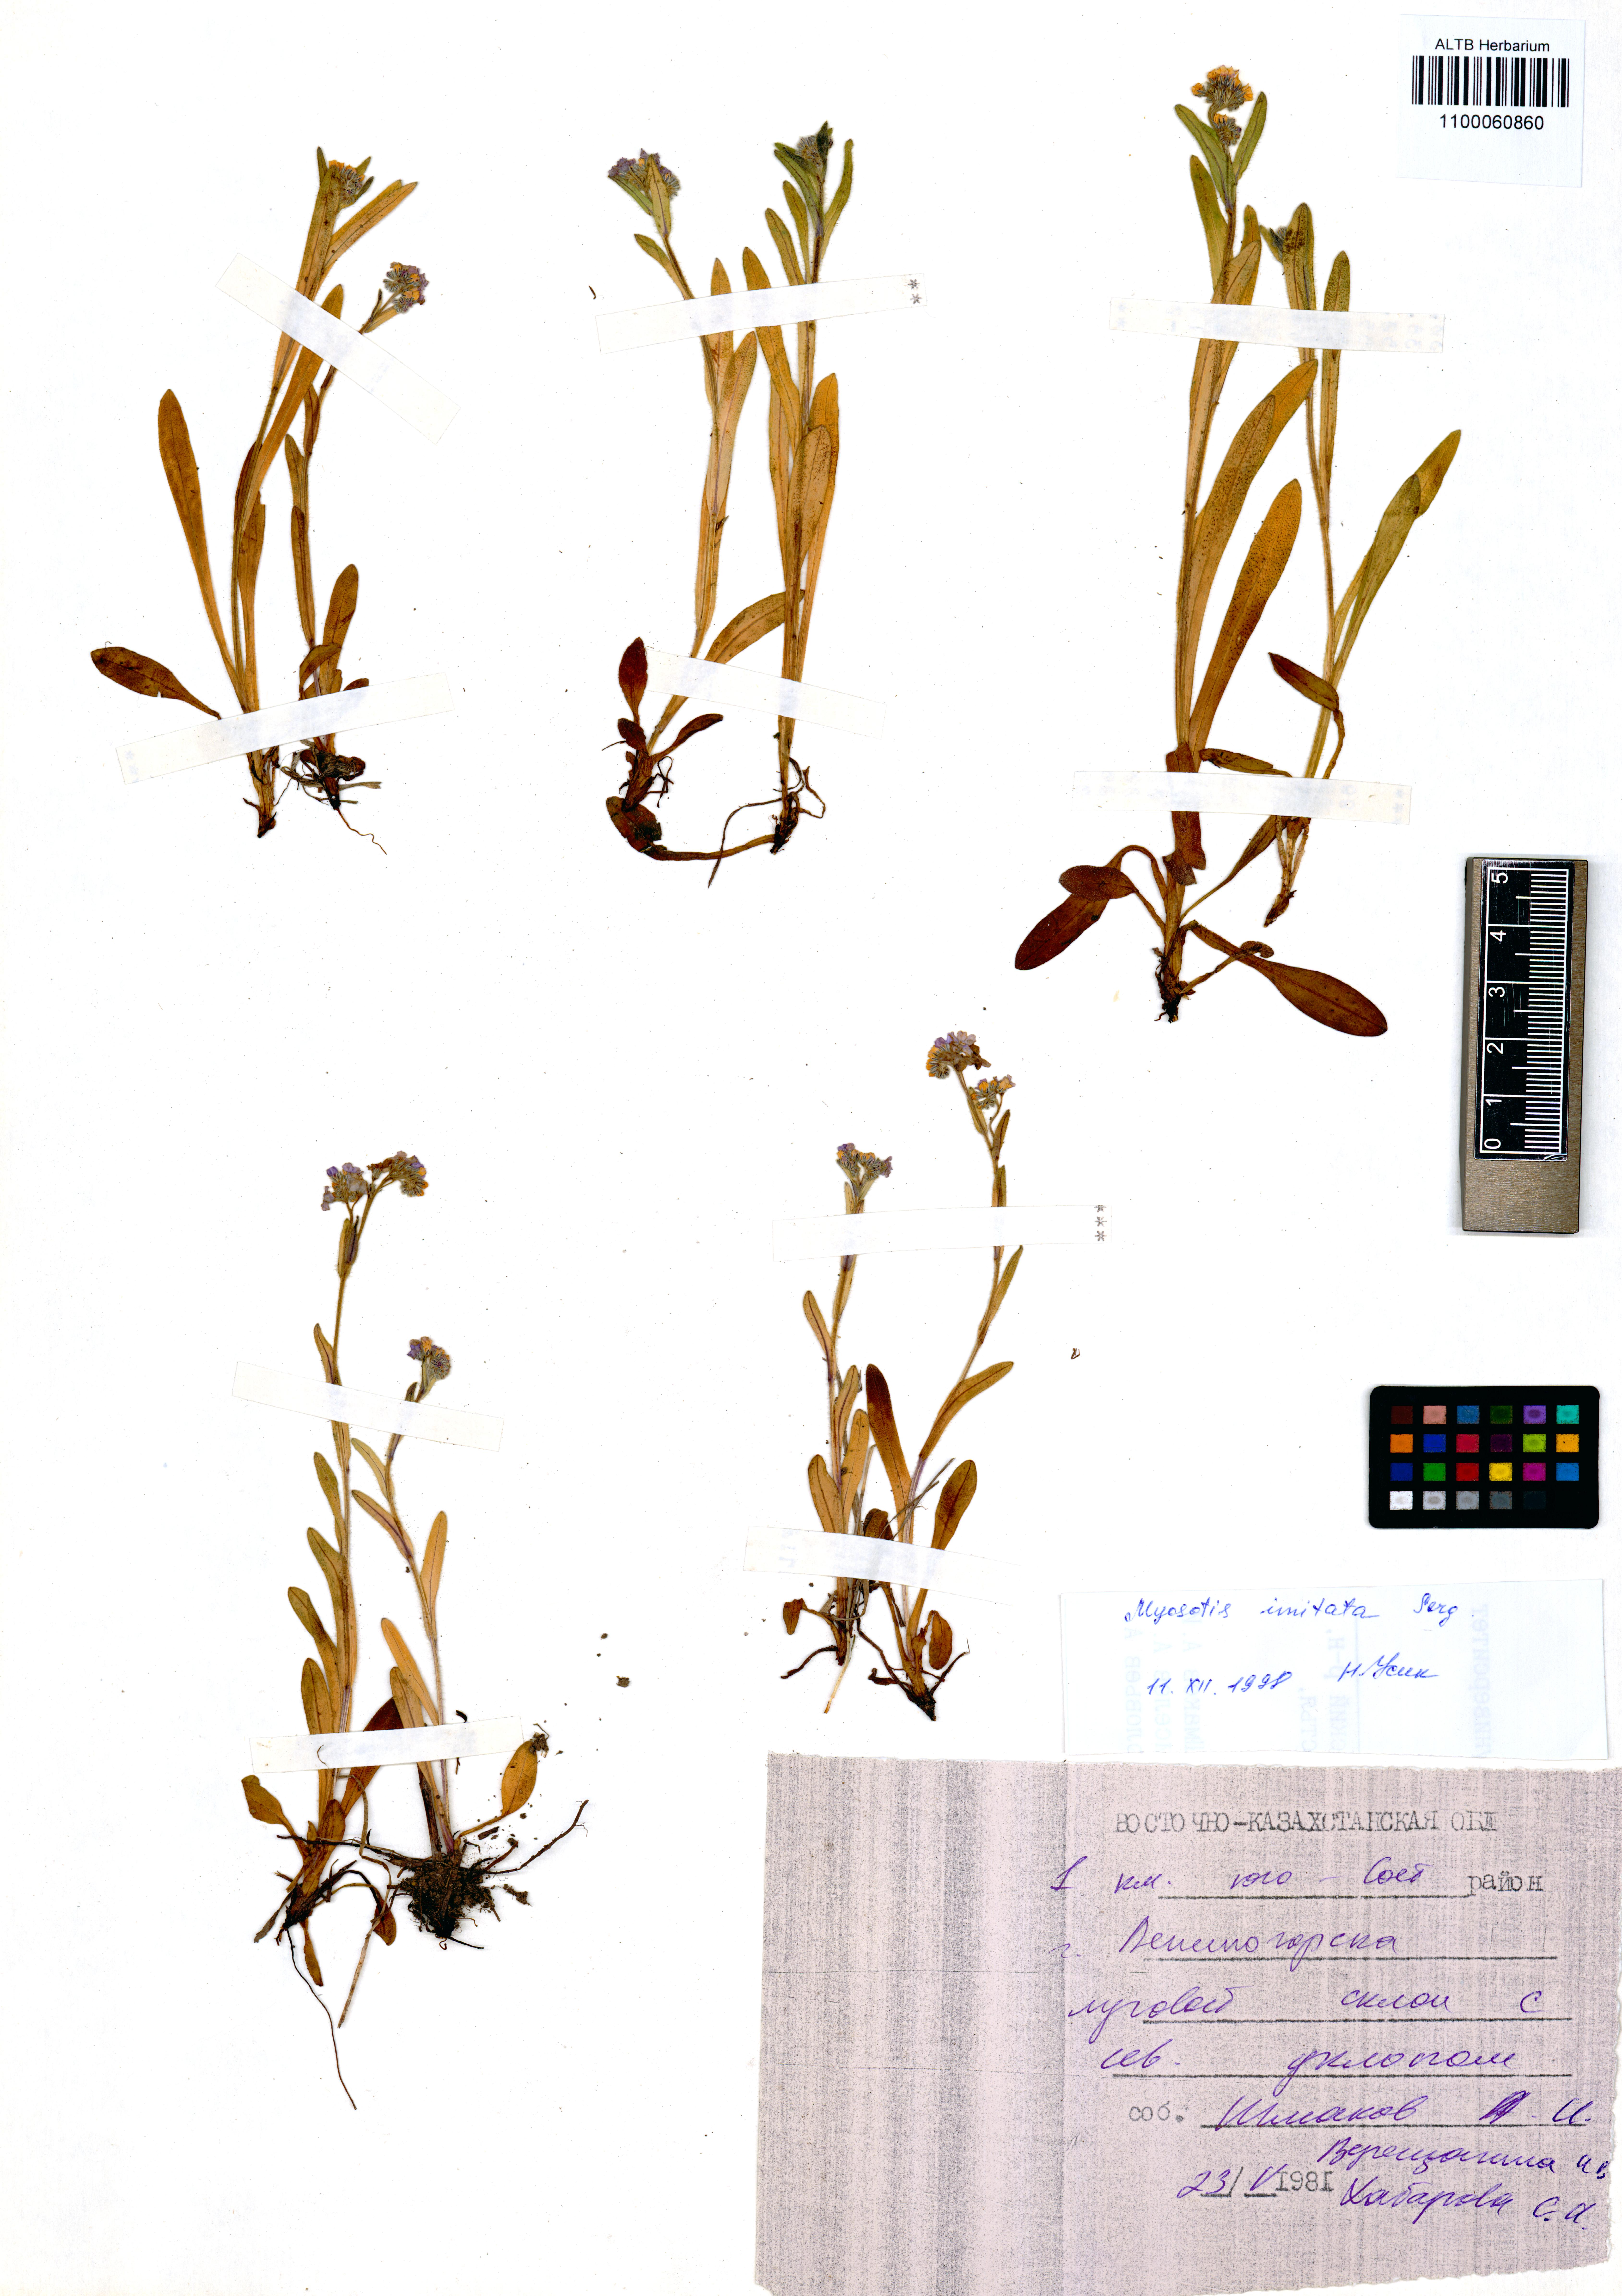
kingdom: Plantae
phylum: Tracheophyta
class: Magnoliopsida
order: Boraginales
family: Boraginaceae
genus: Myosotis
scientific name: Myosotis imitata
